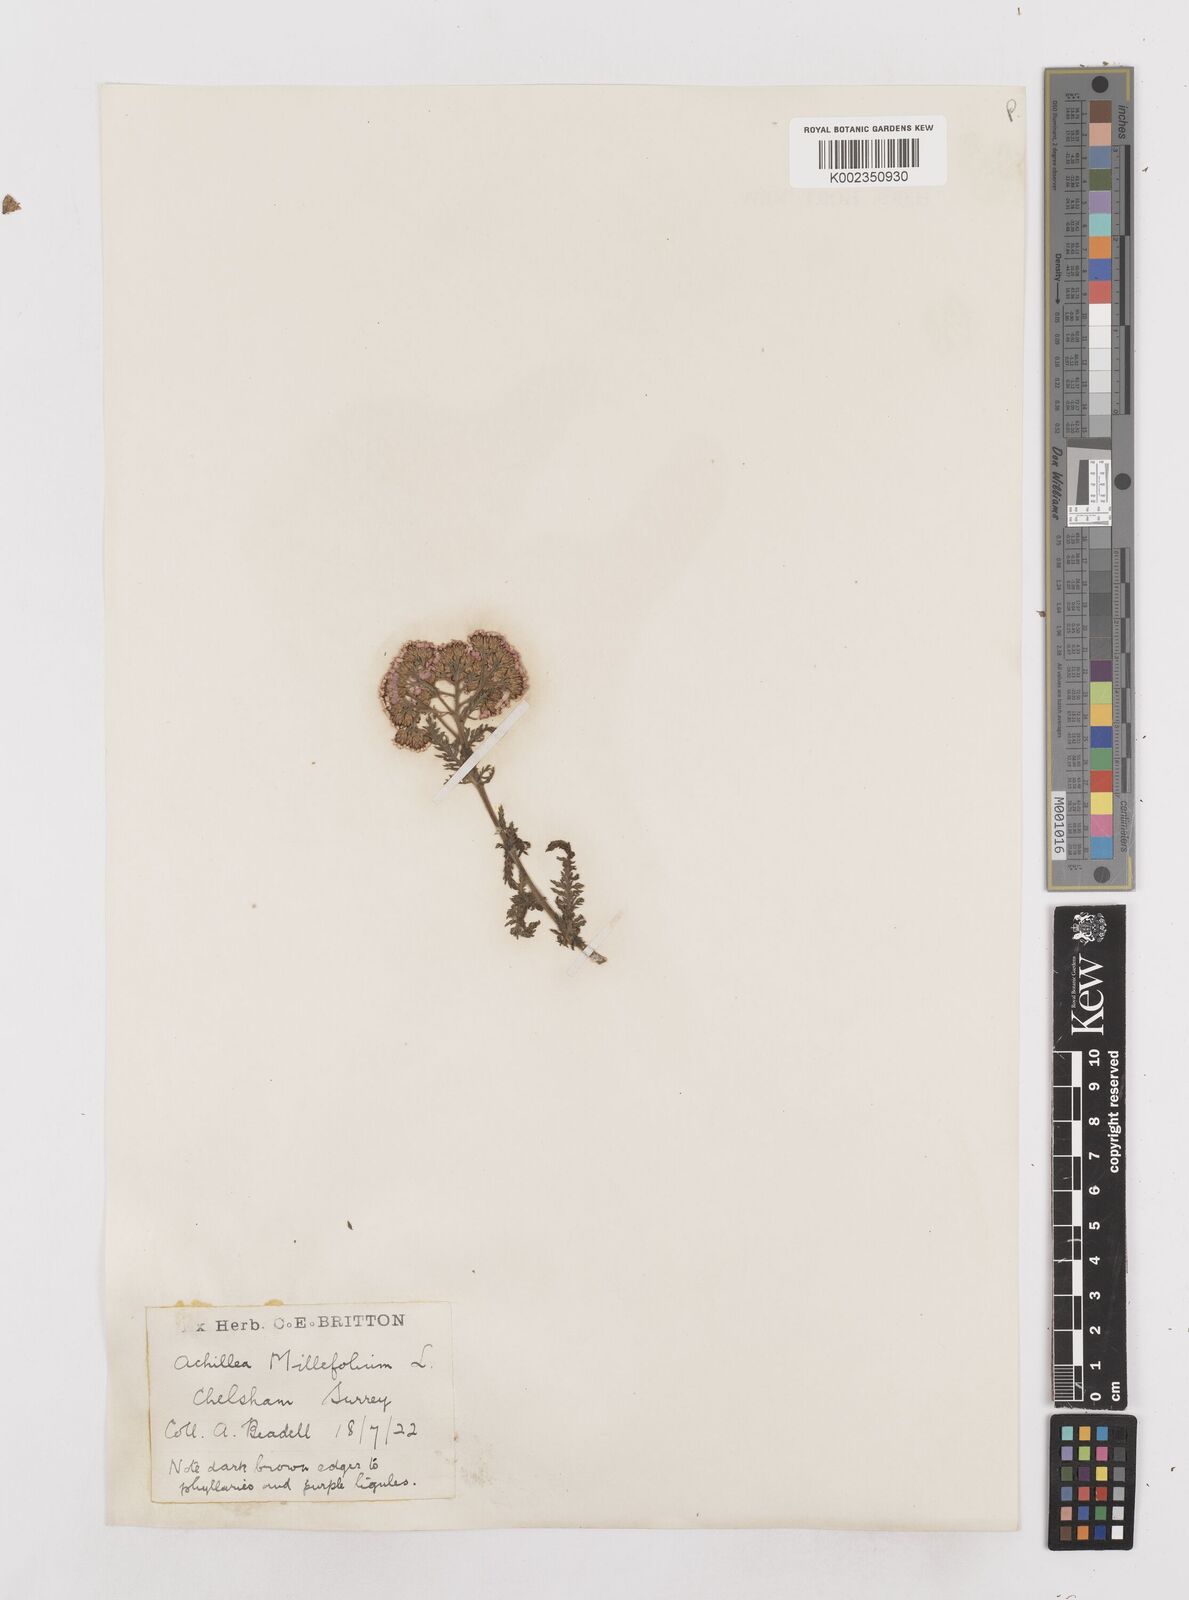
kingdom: Plantae
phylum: Tracheophyta
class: Magnoliopsida
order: Asterales
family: Asteraceae
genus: Achillea
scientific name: Achillea distans
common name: Tall yarrow
